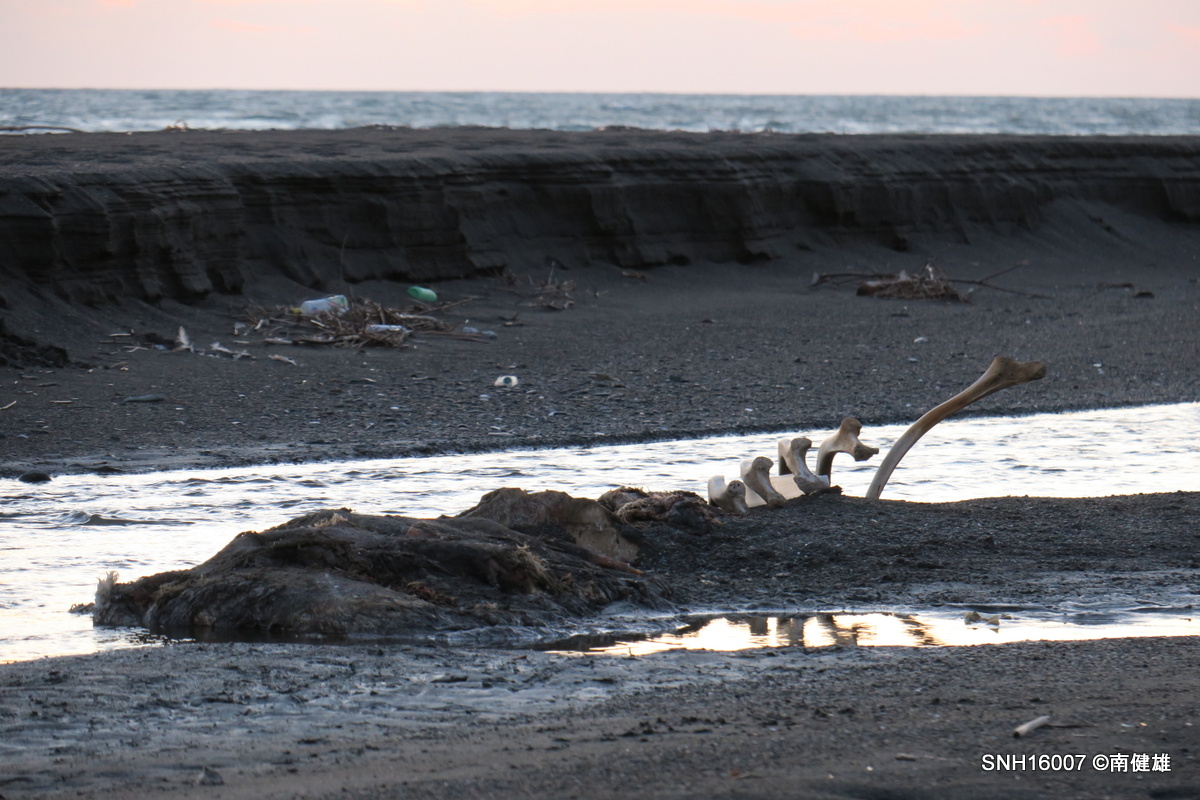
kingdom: Animalia
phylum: Chordata
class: Mammalia
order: Cetacea
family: Physeteridae
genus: Physeter
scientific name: Physeter macrocephalus
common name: Sperm whale
